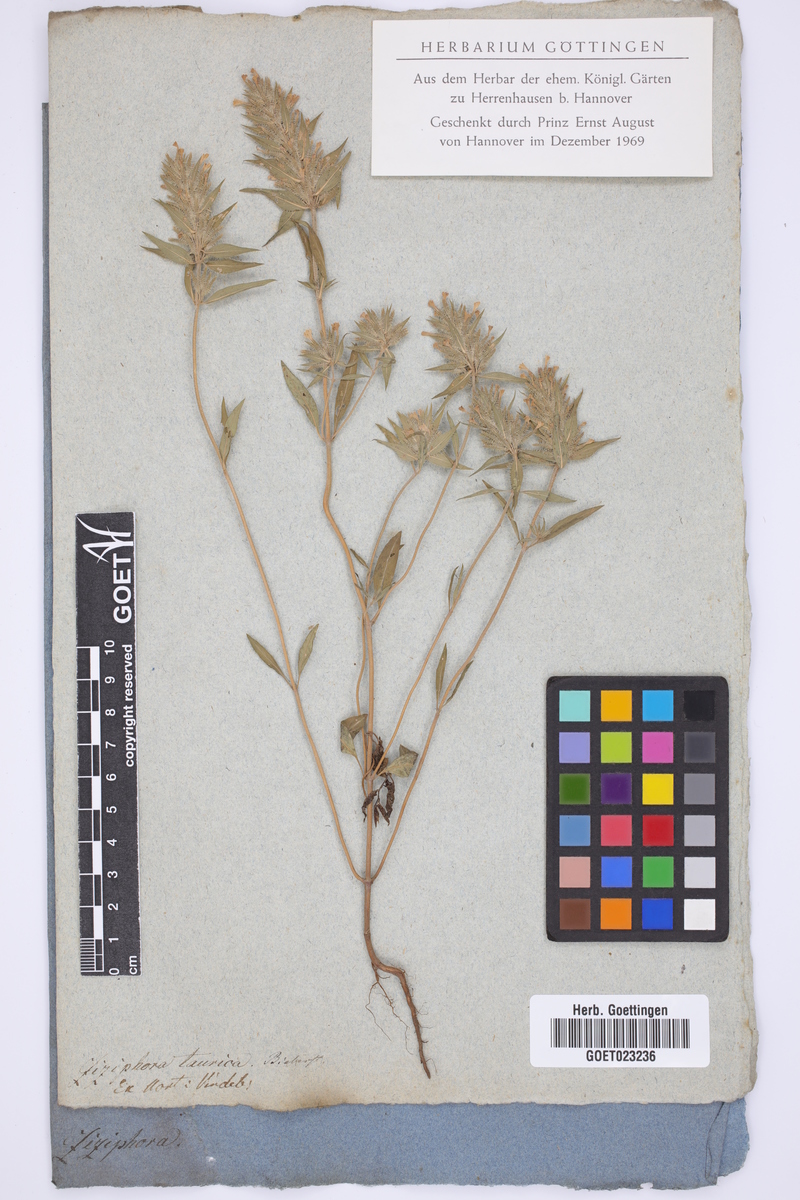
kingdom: Plantae
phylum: Tracheophyta
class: Magnoliopsida
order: Lamiales
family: Lamiaceae
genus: Ziziphora
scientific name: Ziziphora taurica
